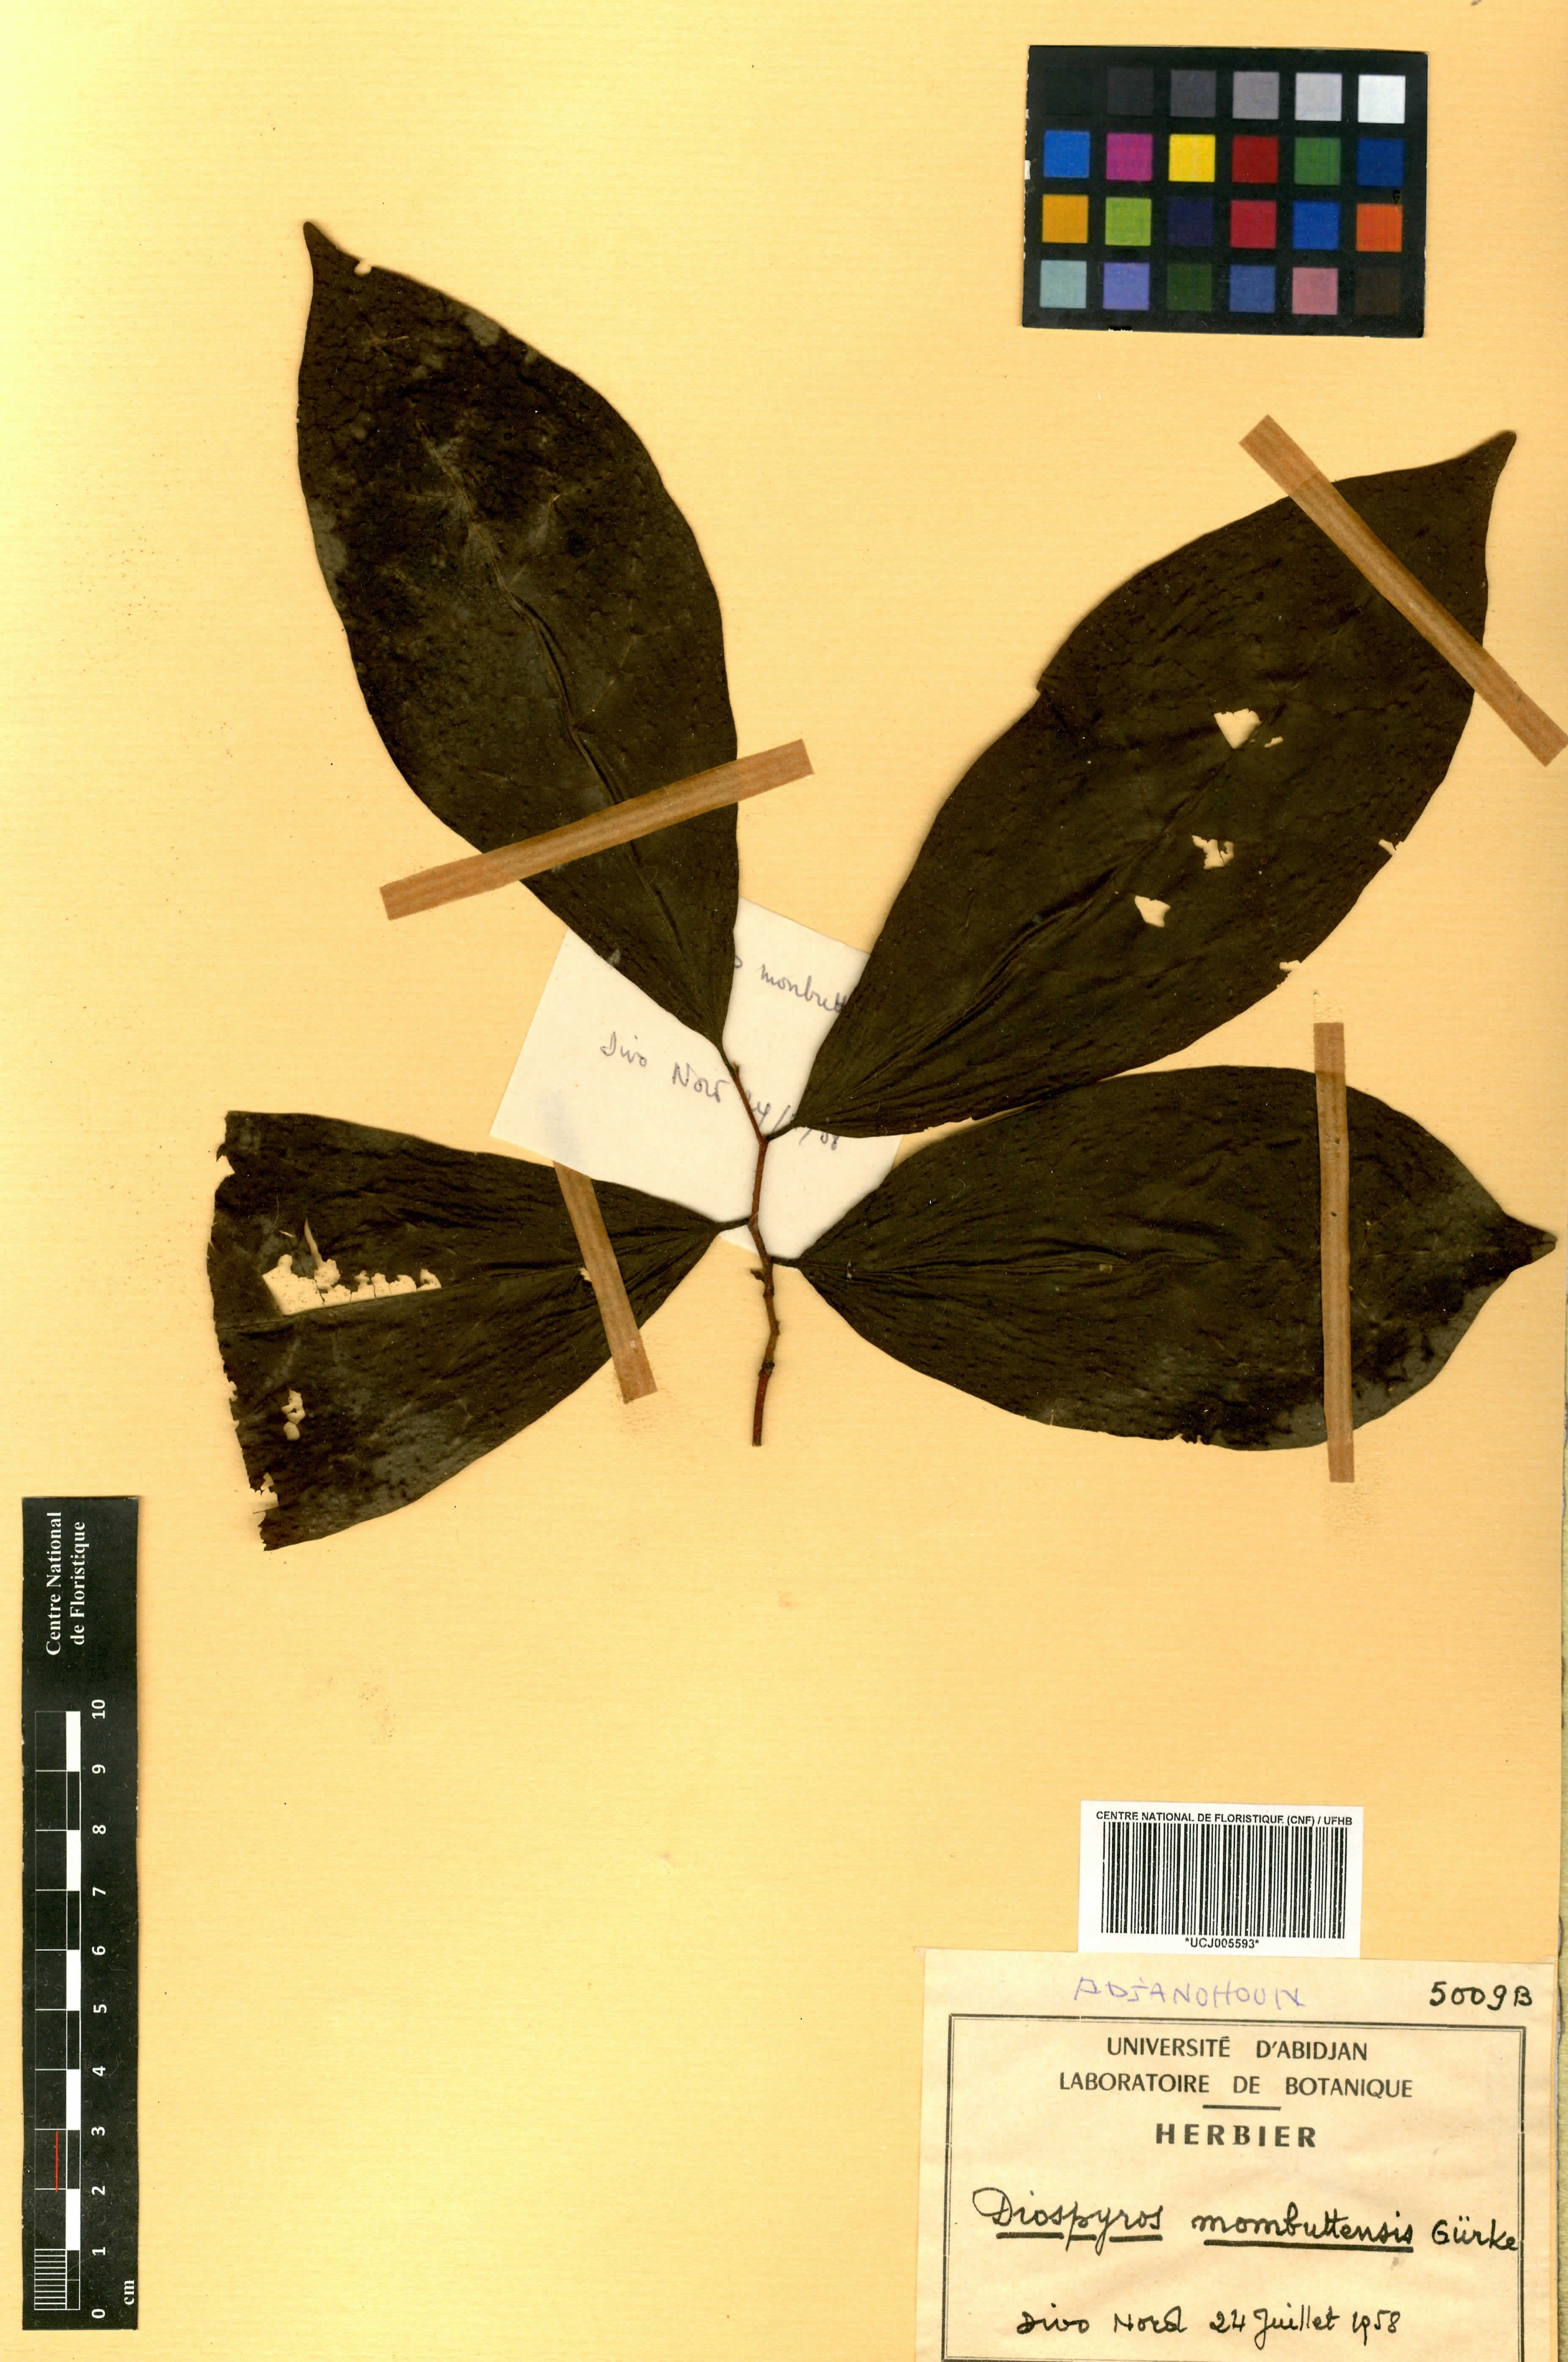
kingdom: Plantae
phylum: Tracheophyta
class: Magnoliopsida
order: Ericales
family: Ebenaceae
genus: Diospyros
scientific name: Diospyros monbuttensis
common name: Walking-stick ebony
